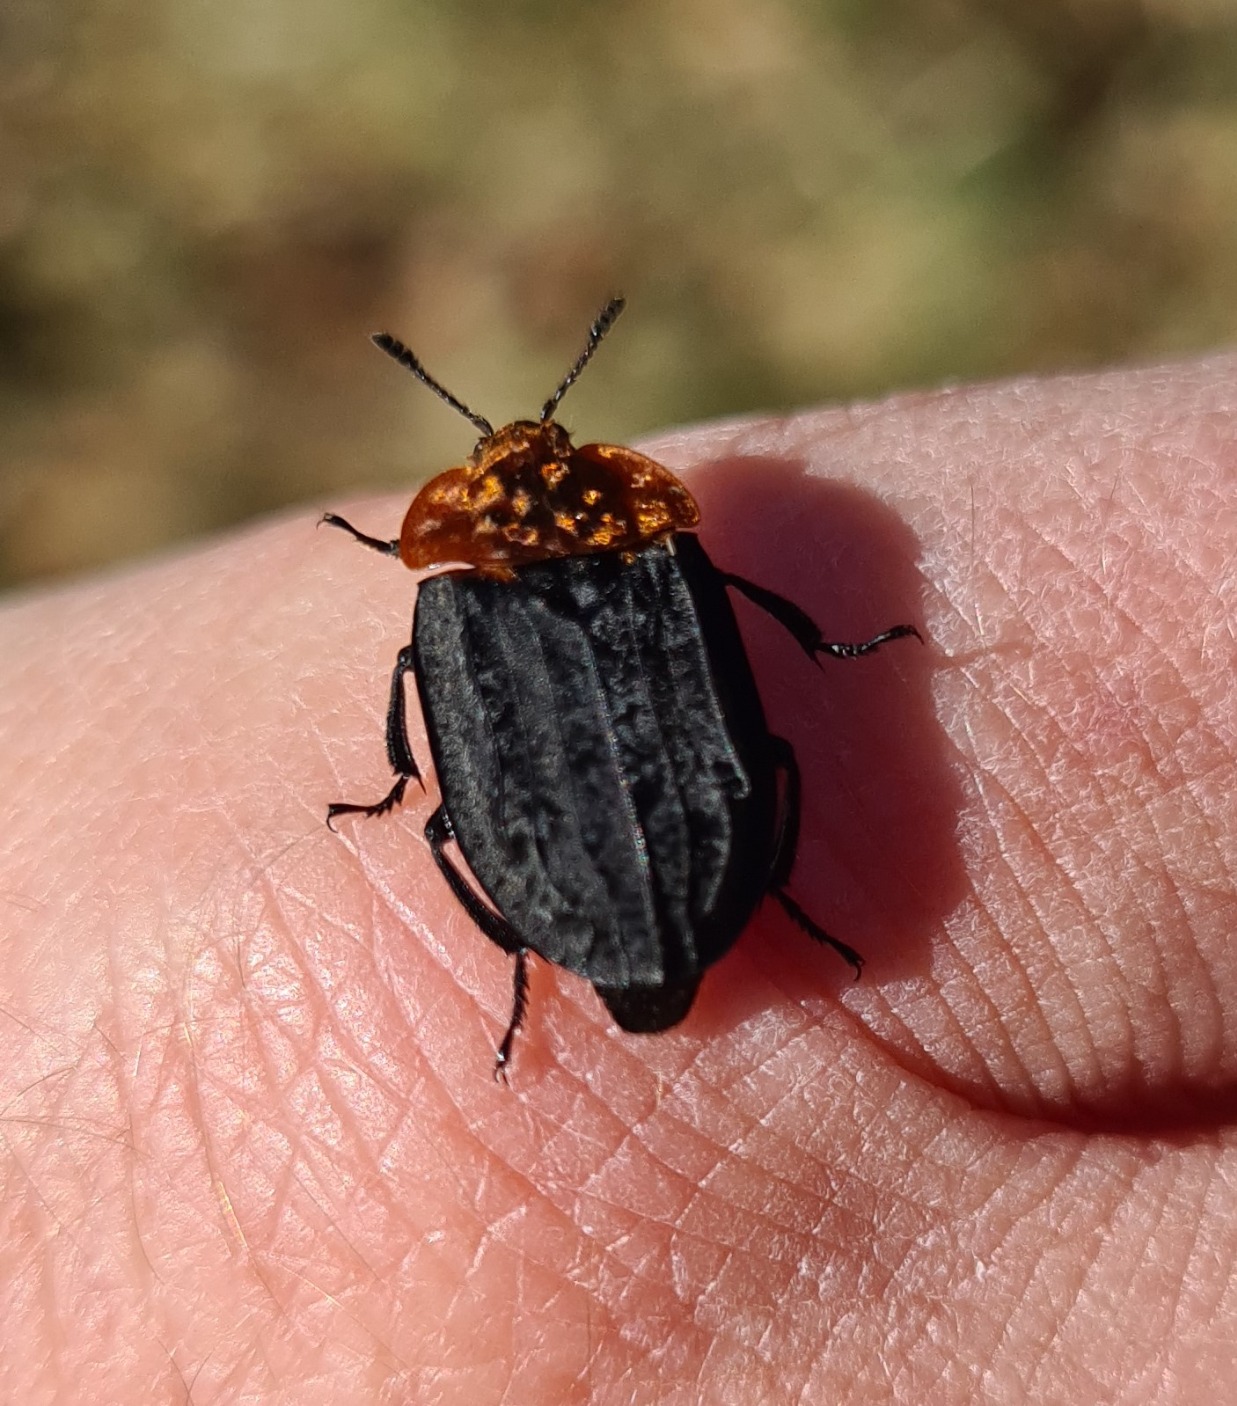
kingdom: Animalia
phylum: Arthropoda
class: Insecta
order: Coleoptera
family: Staphylinidae
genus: Oiceoptoma
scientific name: Oiceoptoma thoracicum
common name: Rødbrystet ådselbille
